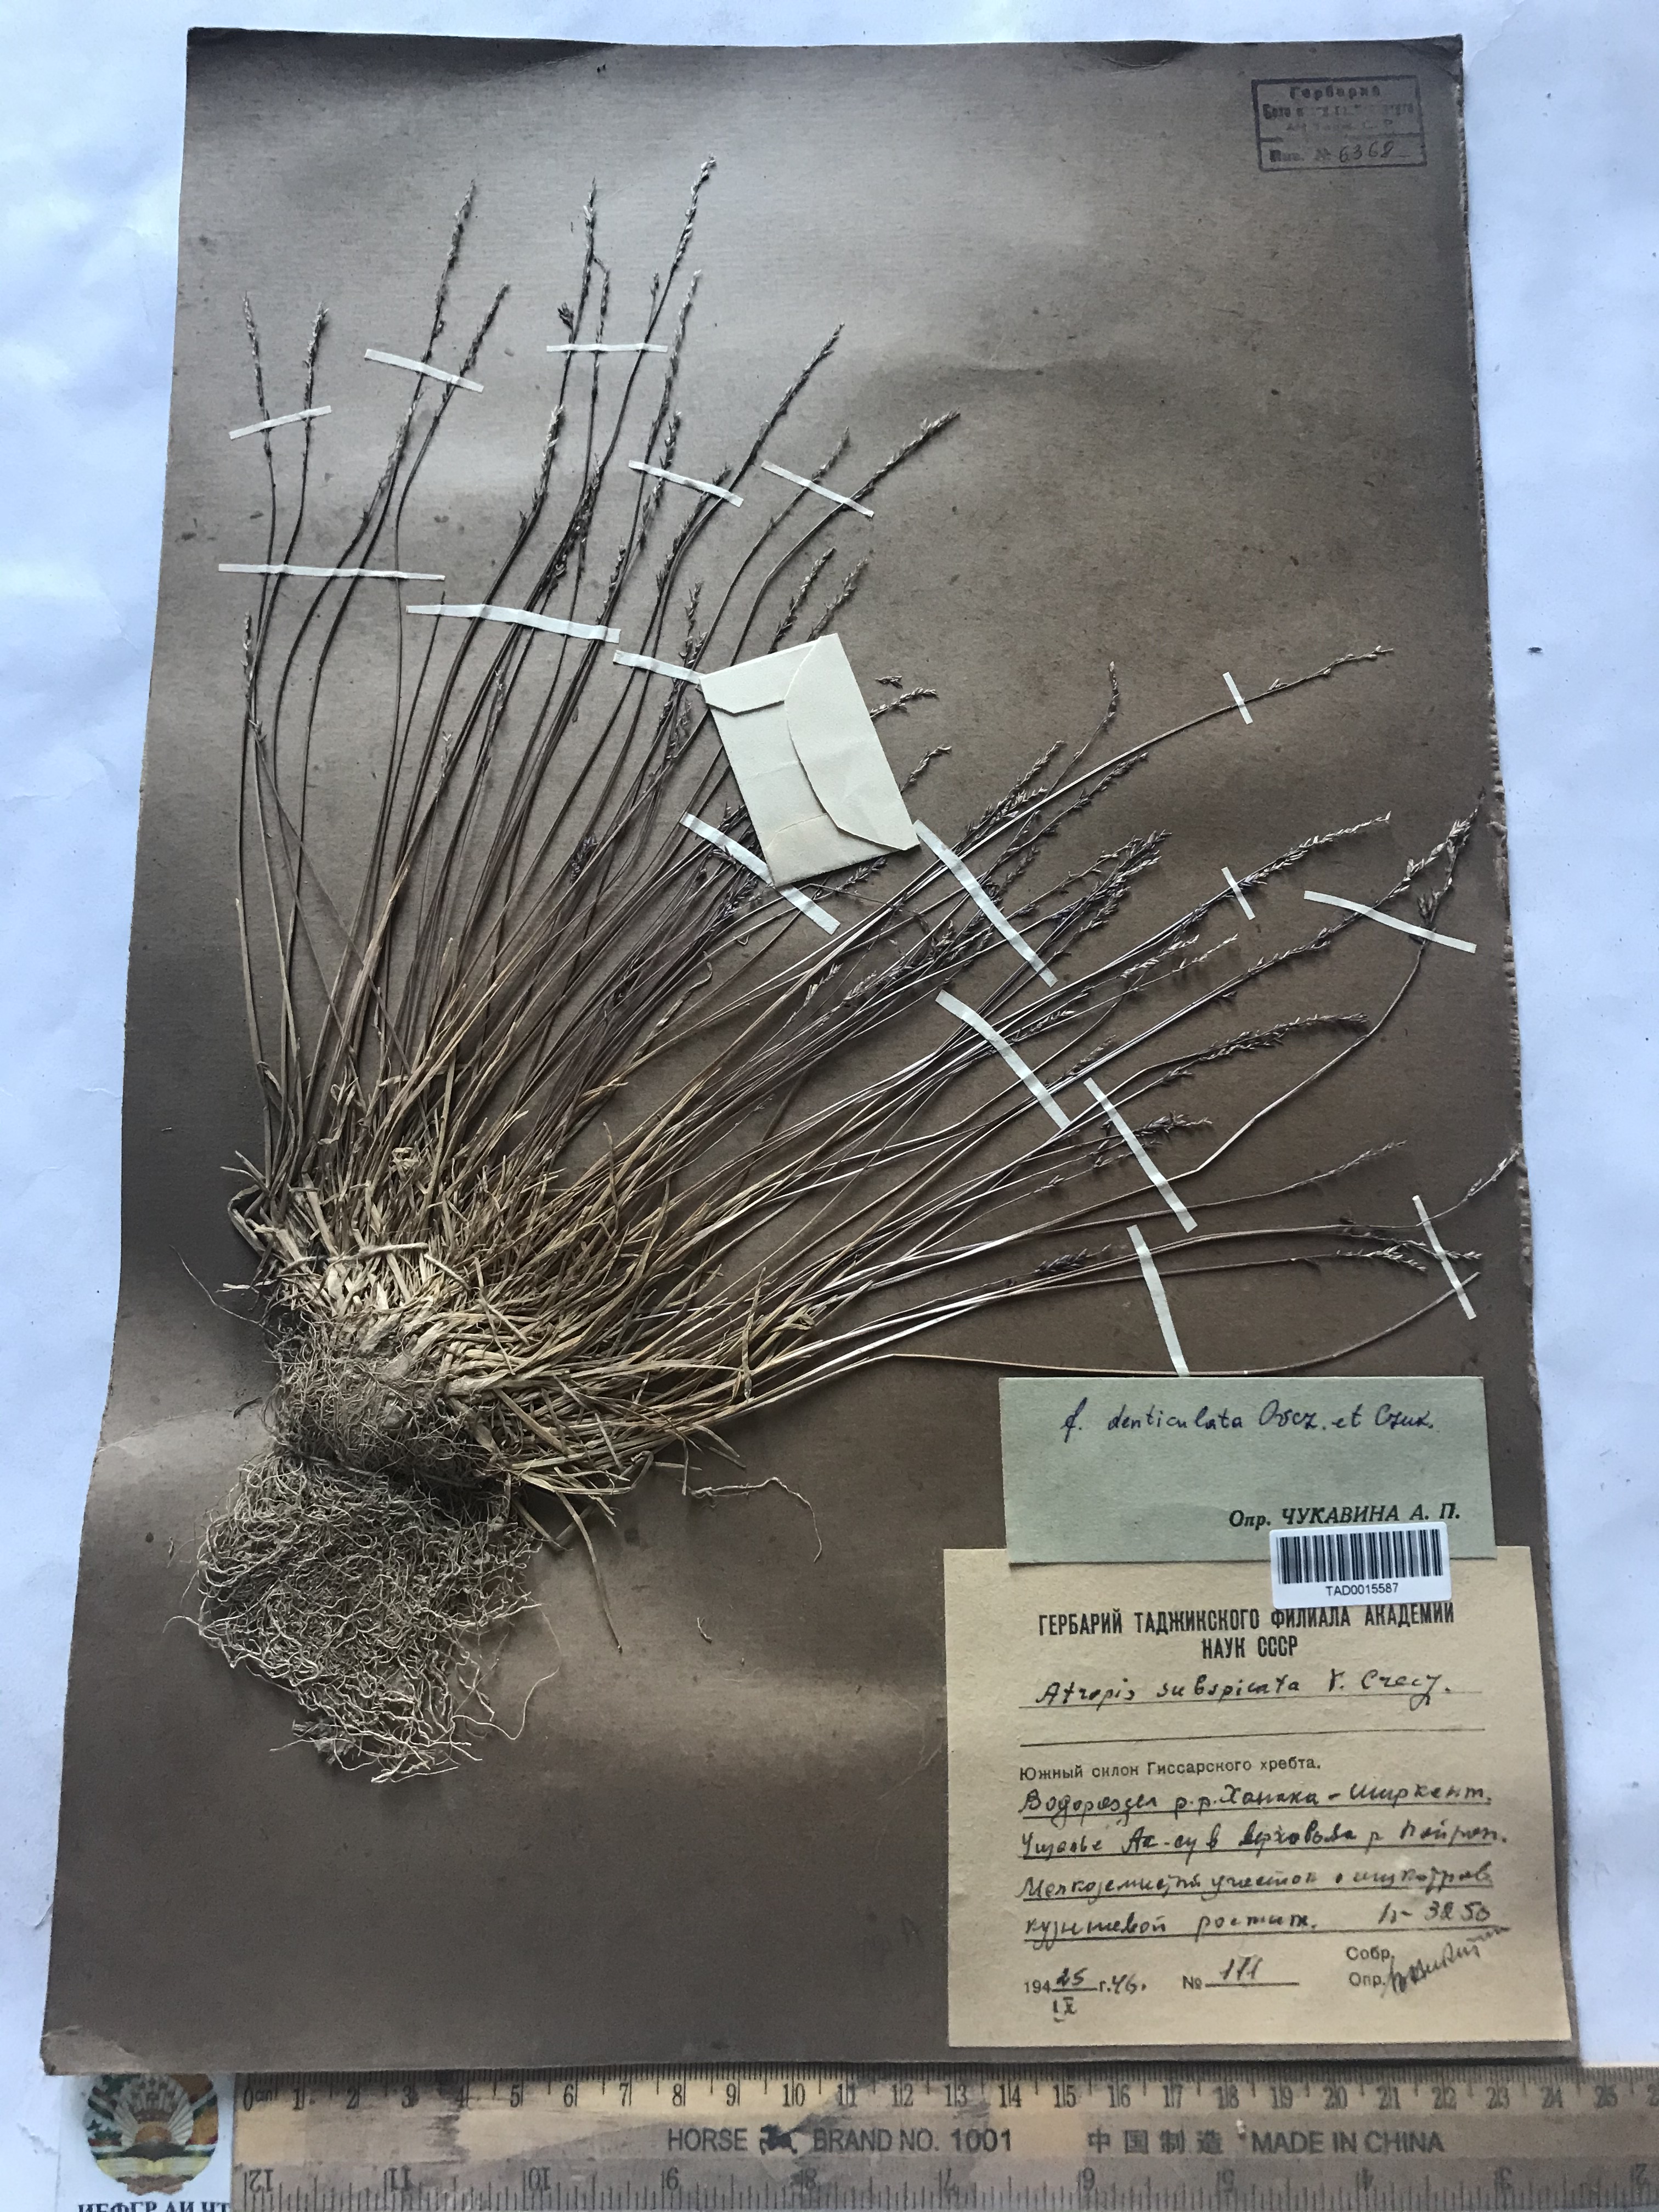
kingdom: Plantae
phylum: Tracheophyta
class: Liliopsida
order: Poales
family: Poaceae
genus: Puccinellia
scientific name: Puccinellia subspicata
